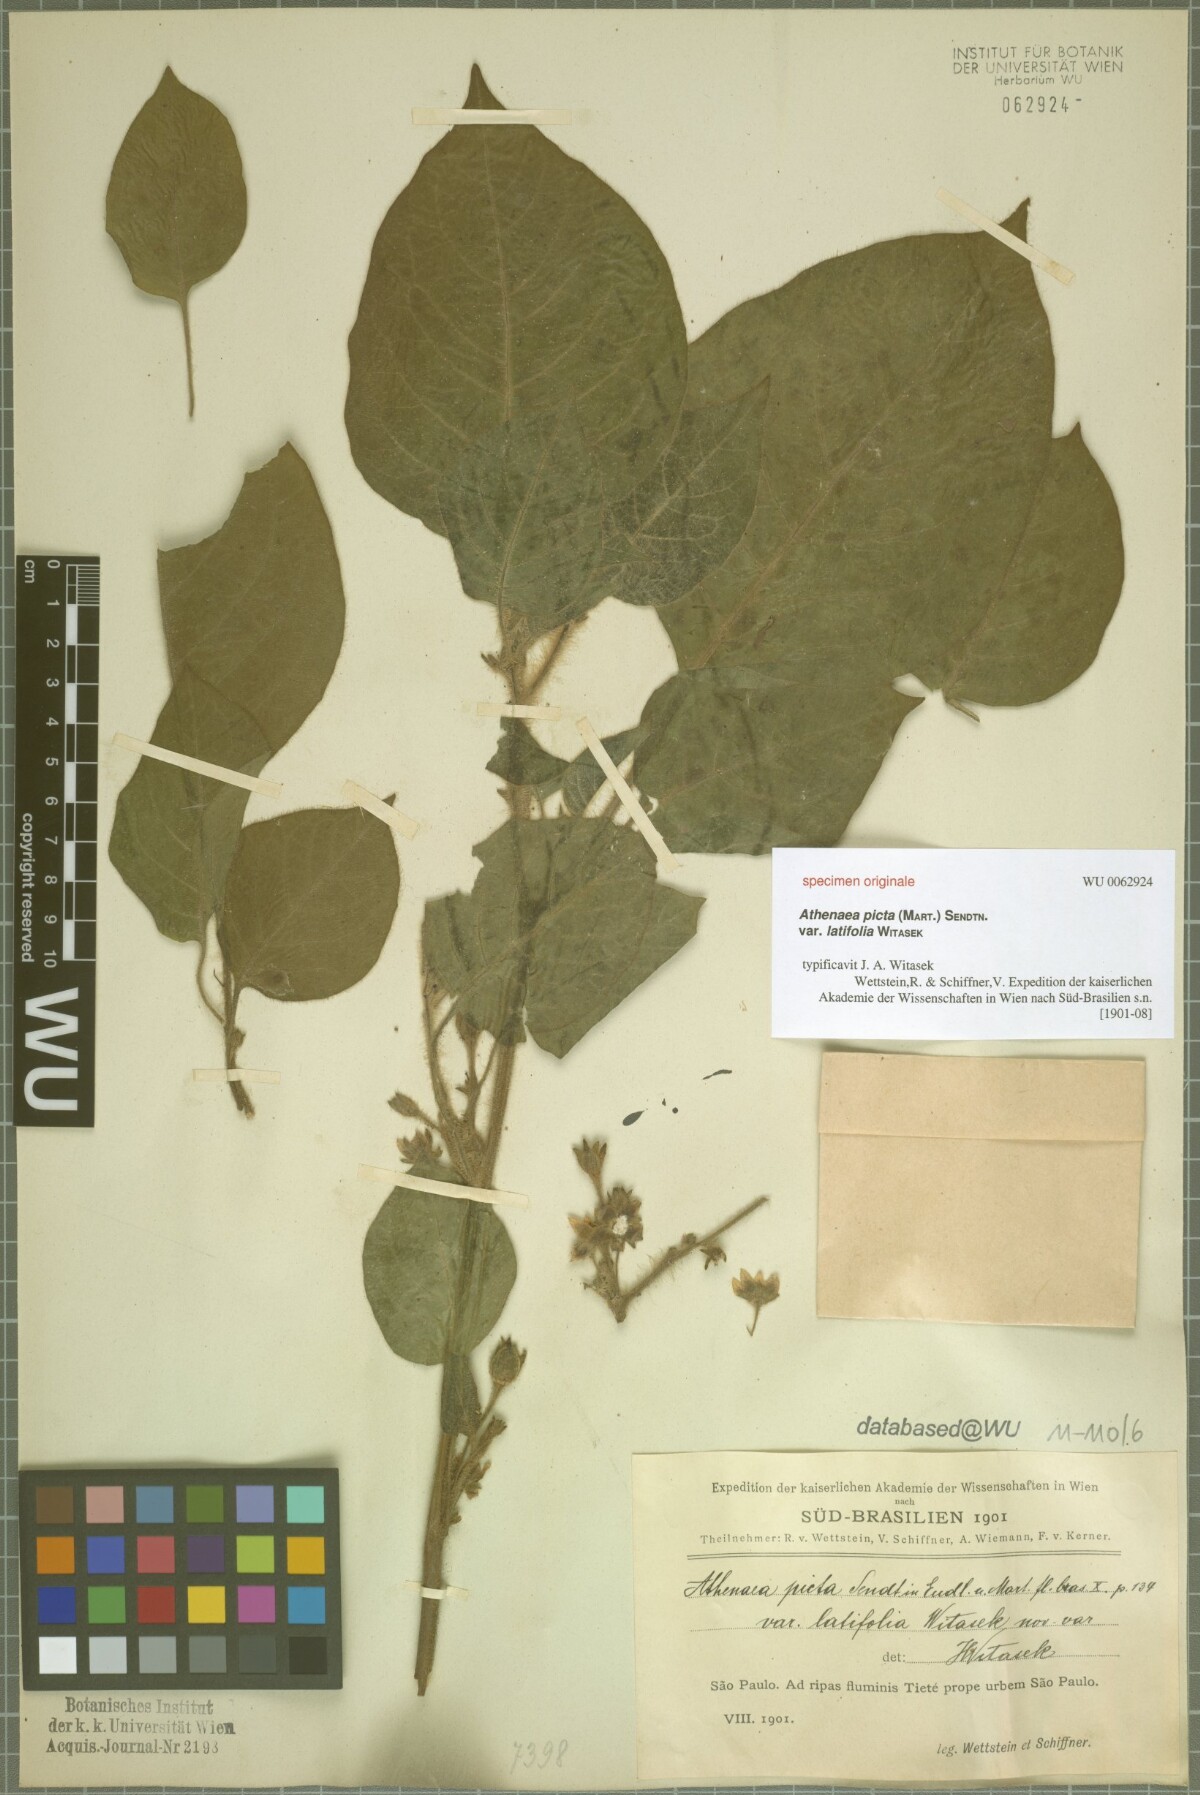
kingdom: Plantae
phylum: Tracheophyta
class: Magnoliopsida
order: Solanales
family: Solanaceae
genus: Athenaea
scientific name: Athenaea picta
